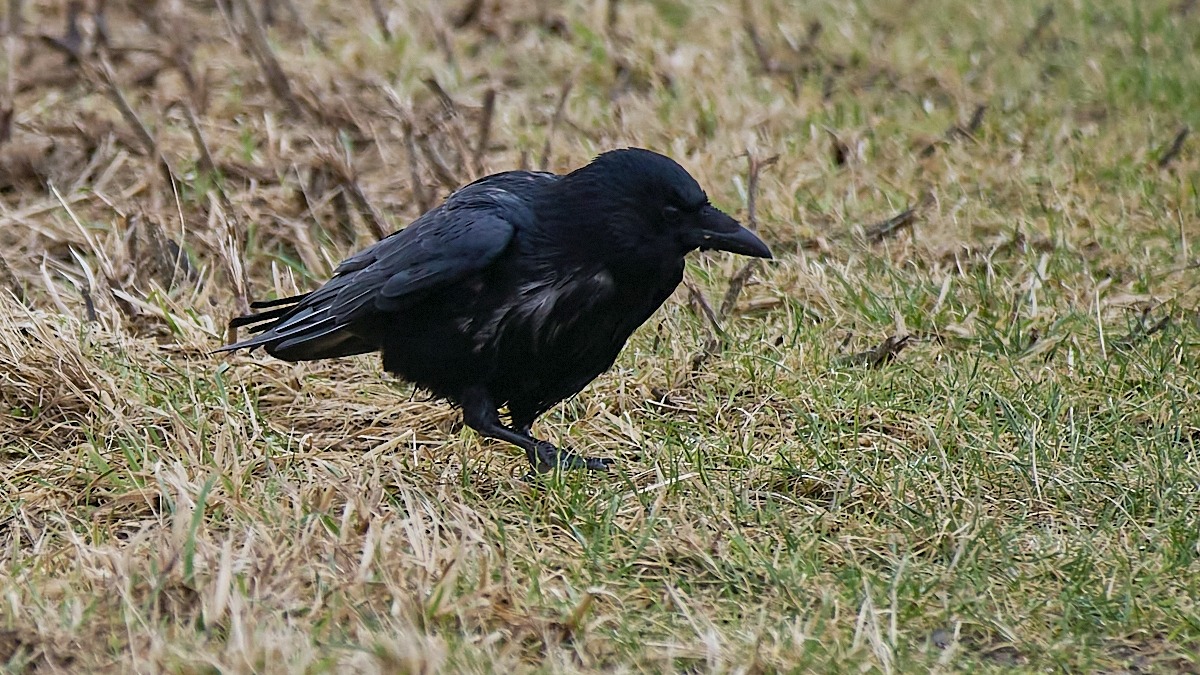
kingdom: Animalia
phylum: Chordata
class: Aves
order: Passeriformes
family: Corvidae
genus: Corvus
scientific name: Corvus corone
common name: Sortkrage
